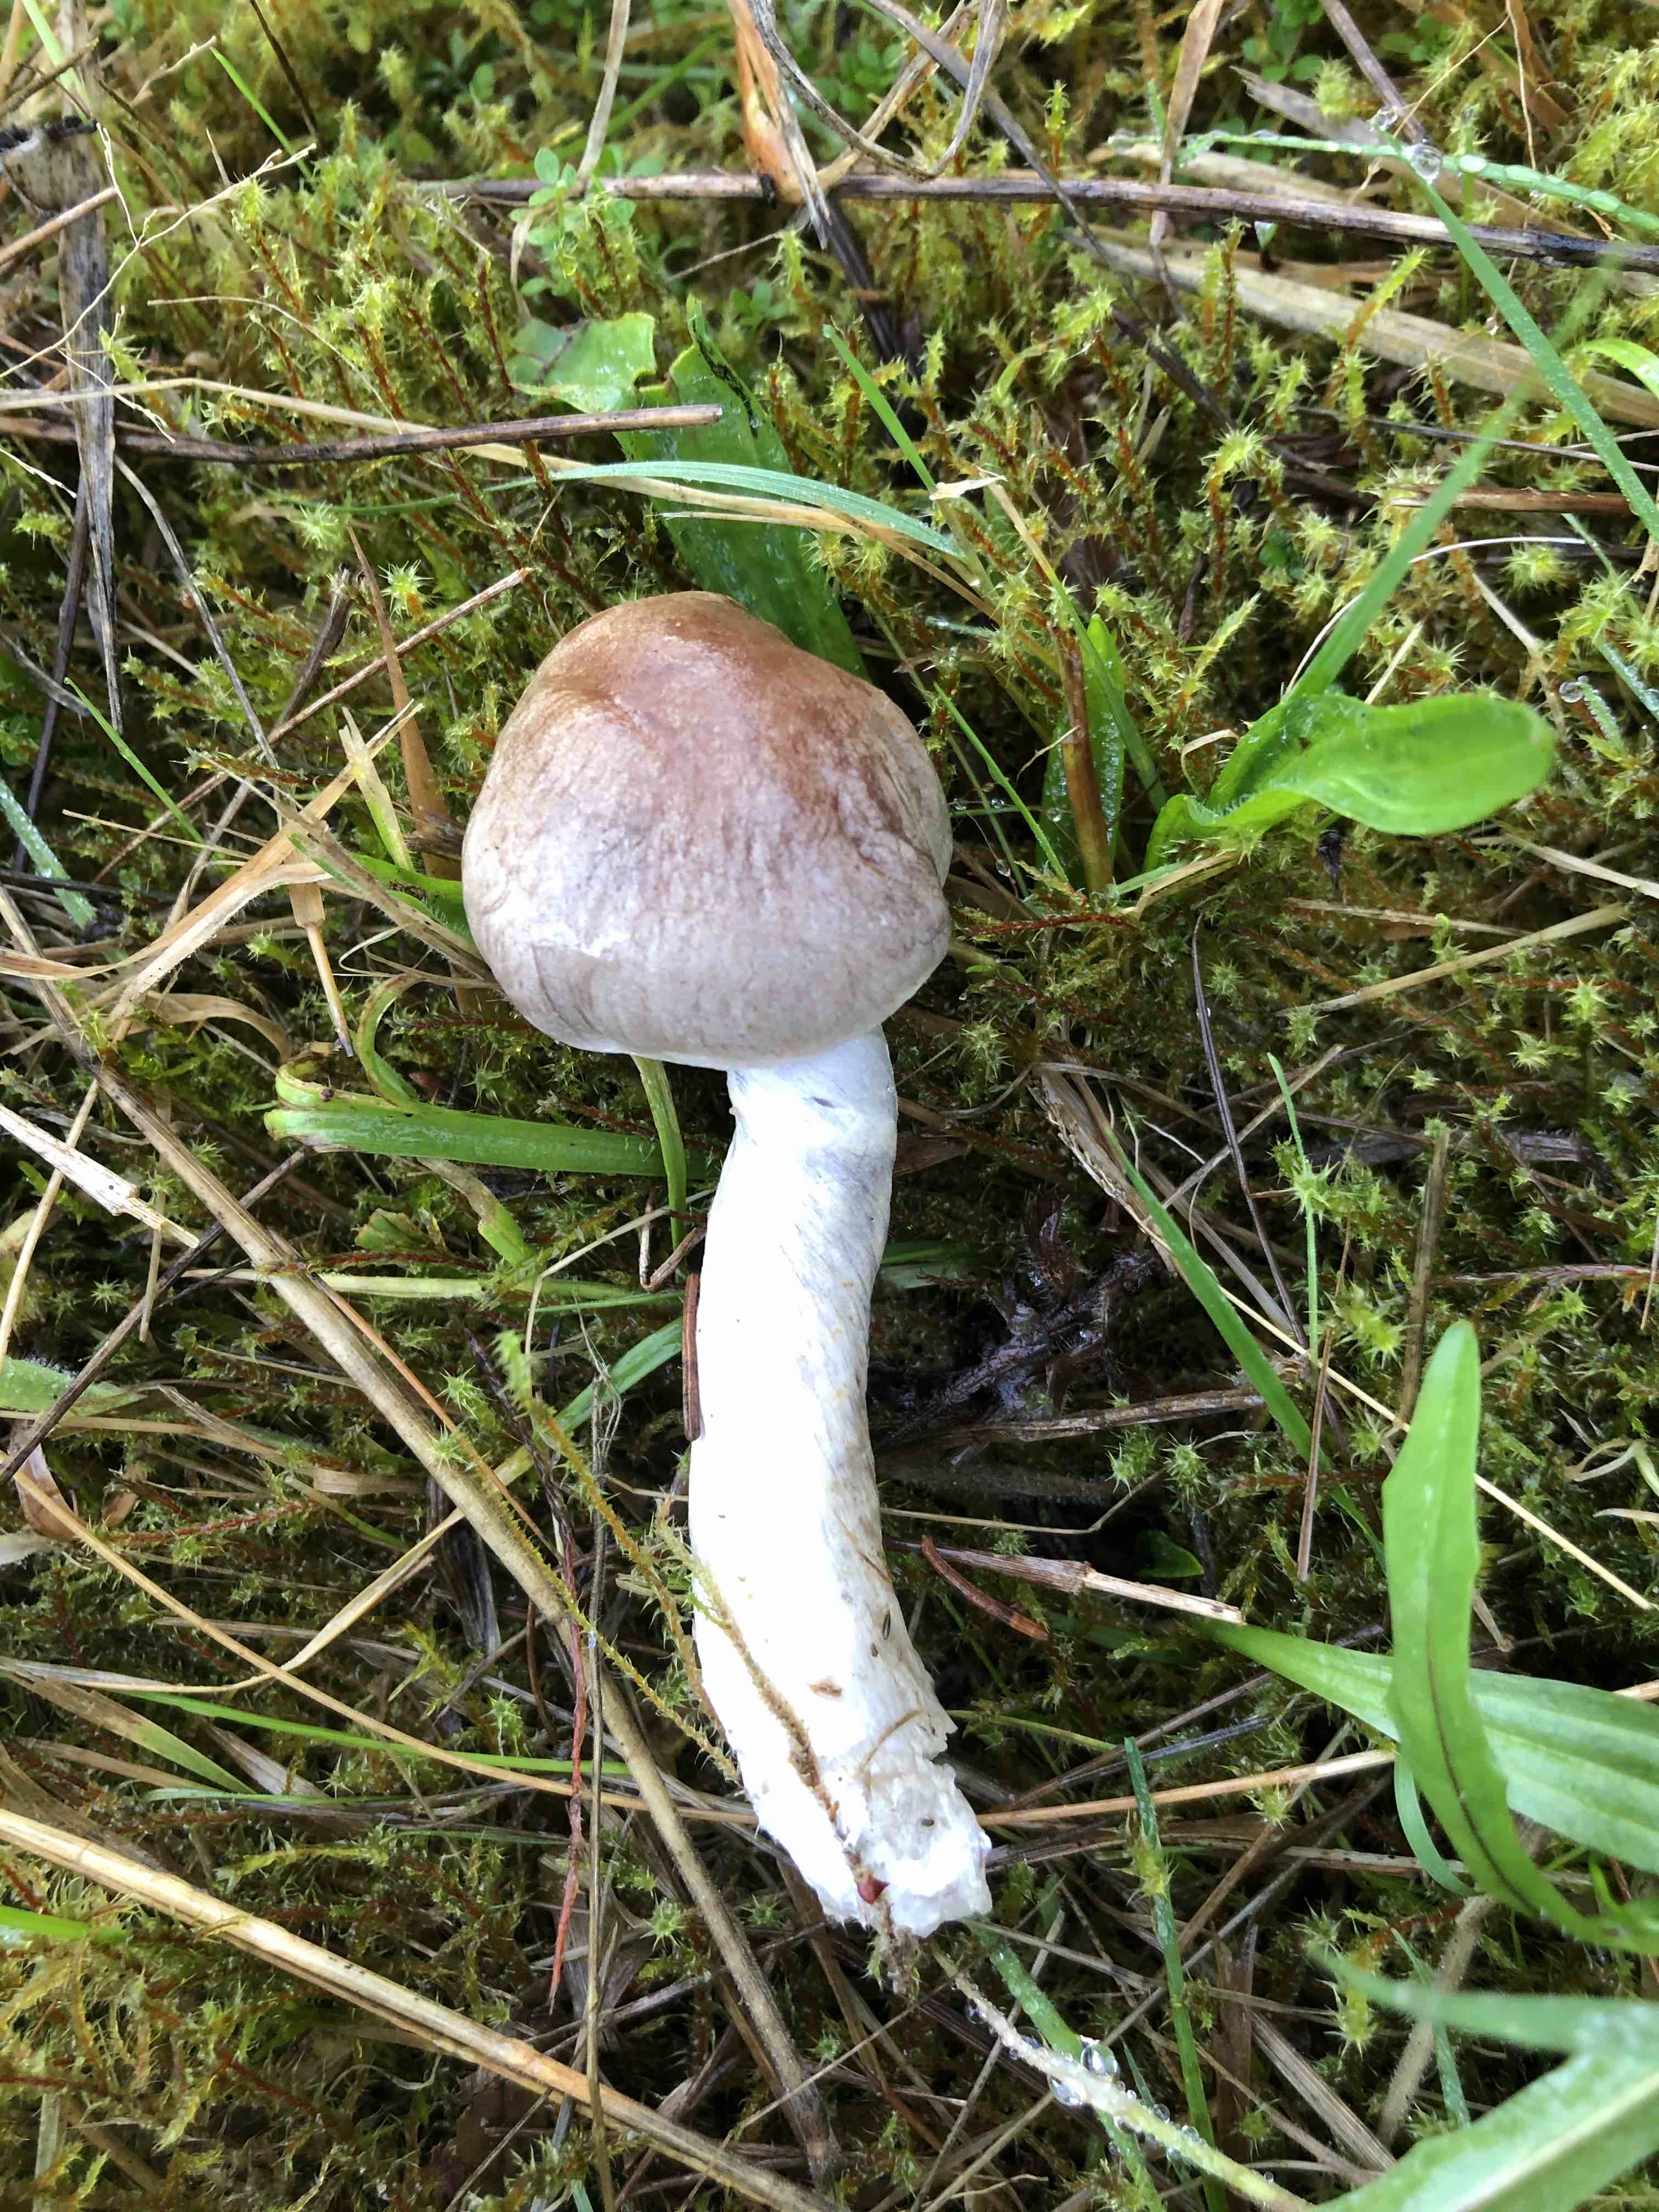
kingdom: Fungi
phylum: Basidiomycota
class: Agaricomycetes
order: Agaricales
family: Cortinariaceae
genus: Cortinarius
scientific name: Cortinarius
